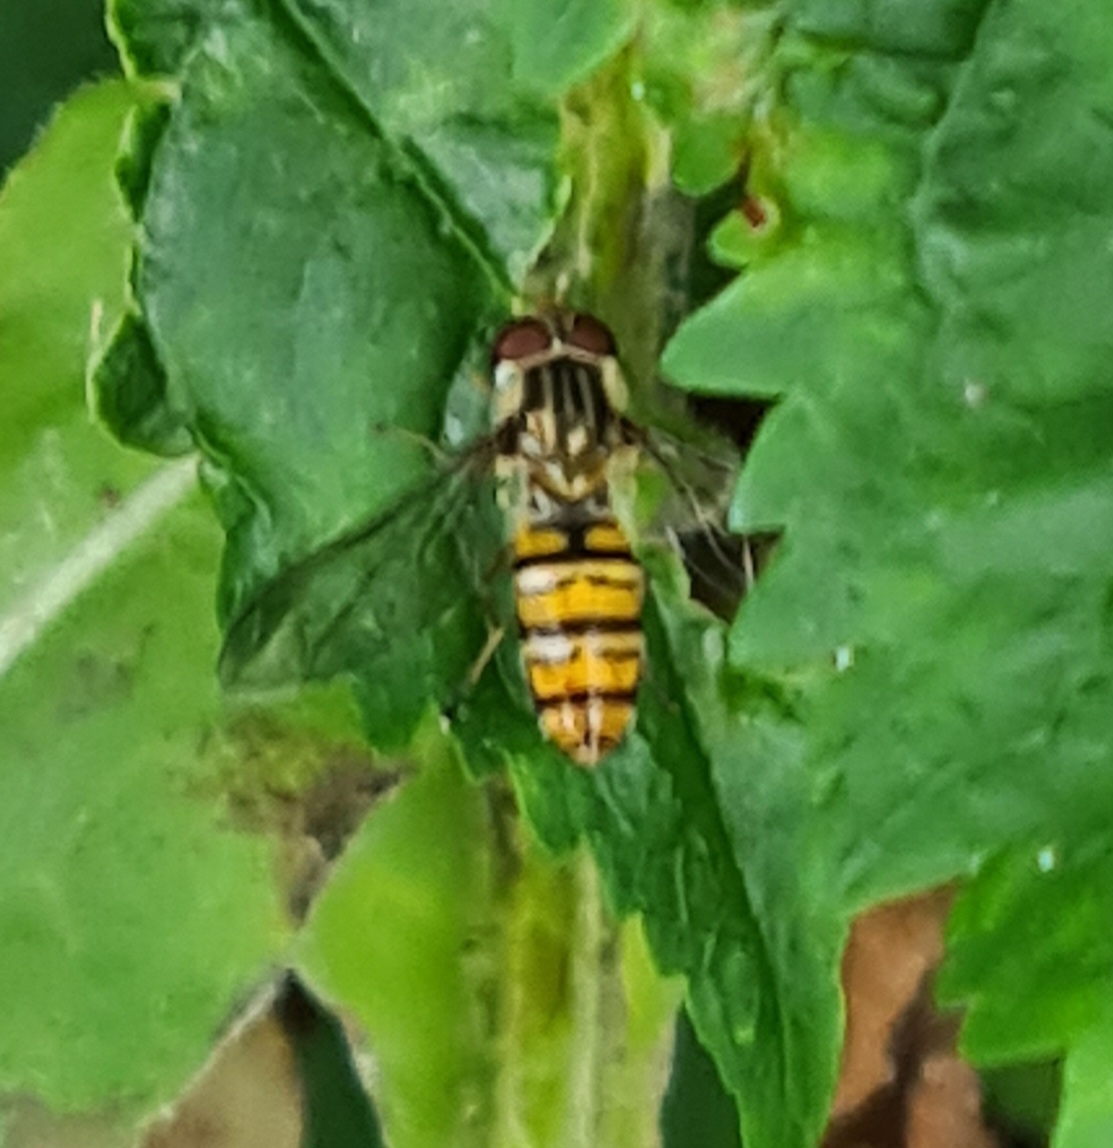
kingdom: Animalia
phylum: Arthropoda
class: Insecta
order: Diptera
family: Syrphidae
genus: Episyrphus
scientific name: Episyrphus balteatus
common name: Dobbeltbåndet svirreflue
